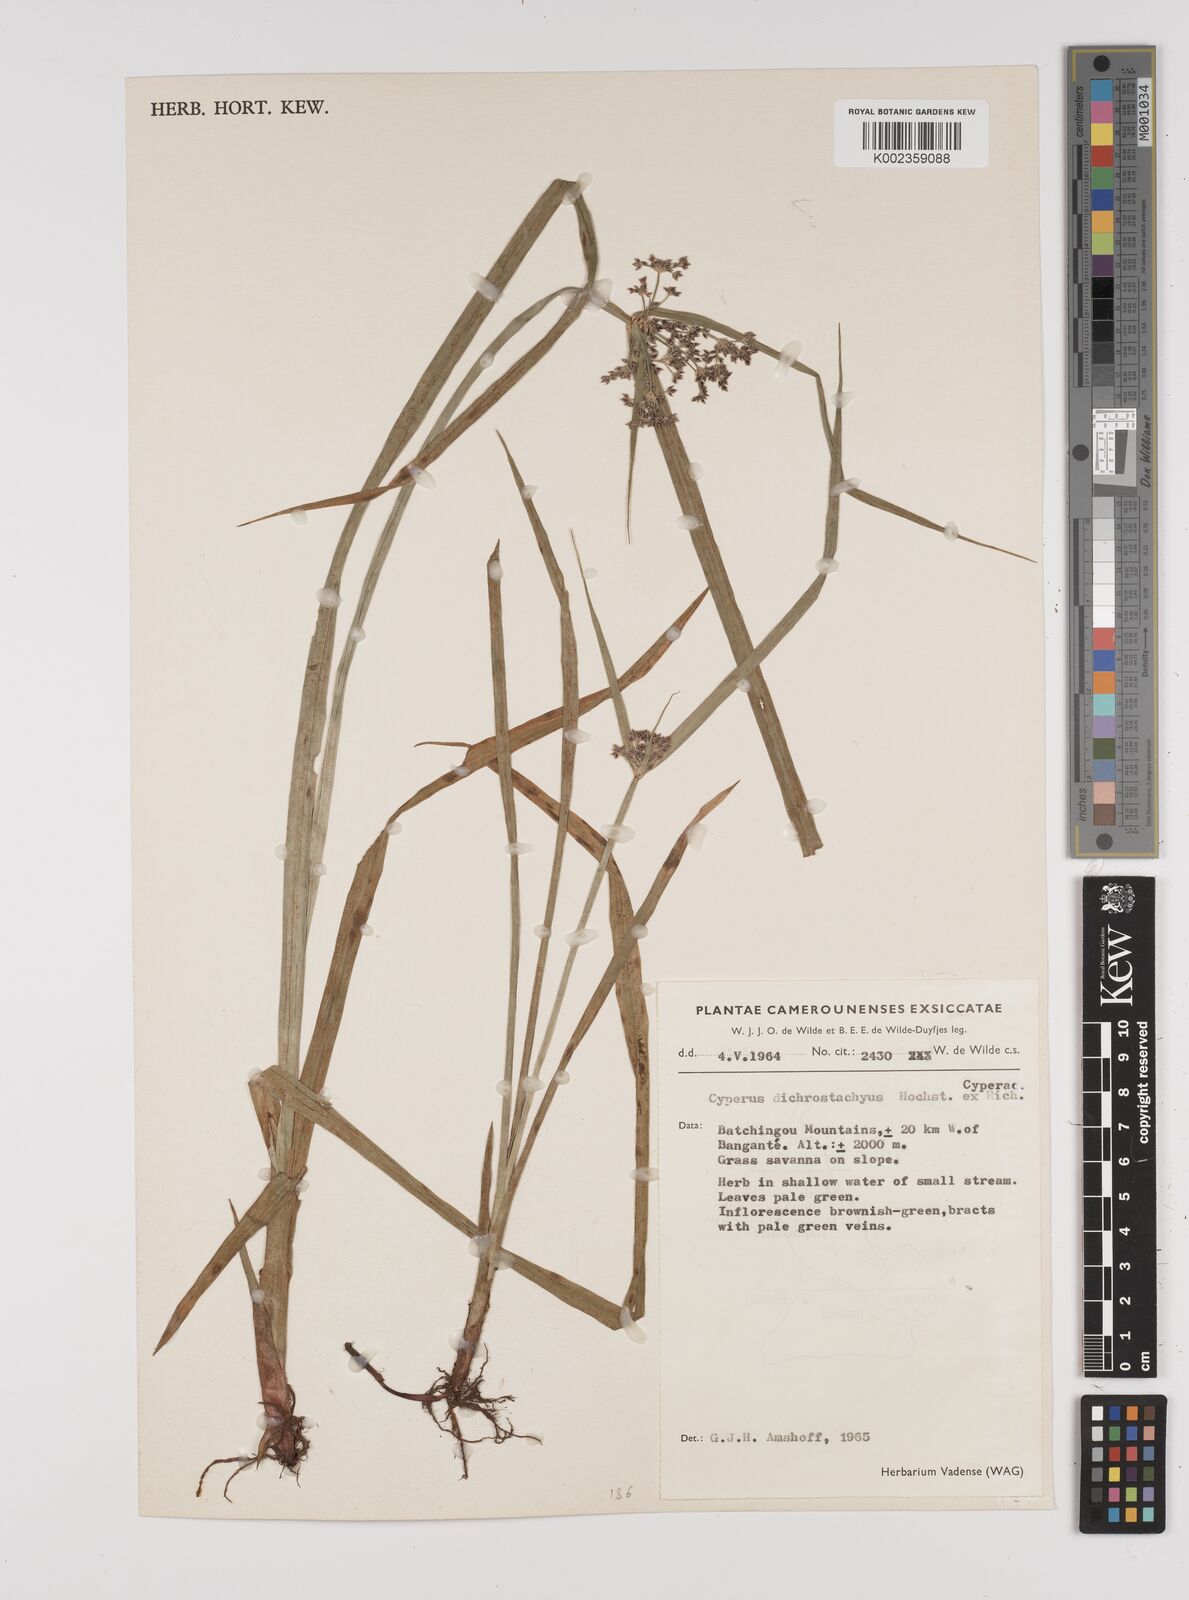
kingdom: Plantae
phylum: Tracheophyta
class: Liliopsida
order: Poales
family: Cyperaceae
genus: Cyperus
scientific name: Cyperus dichrostachyus
